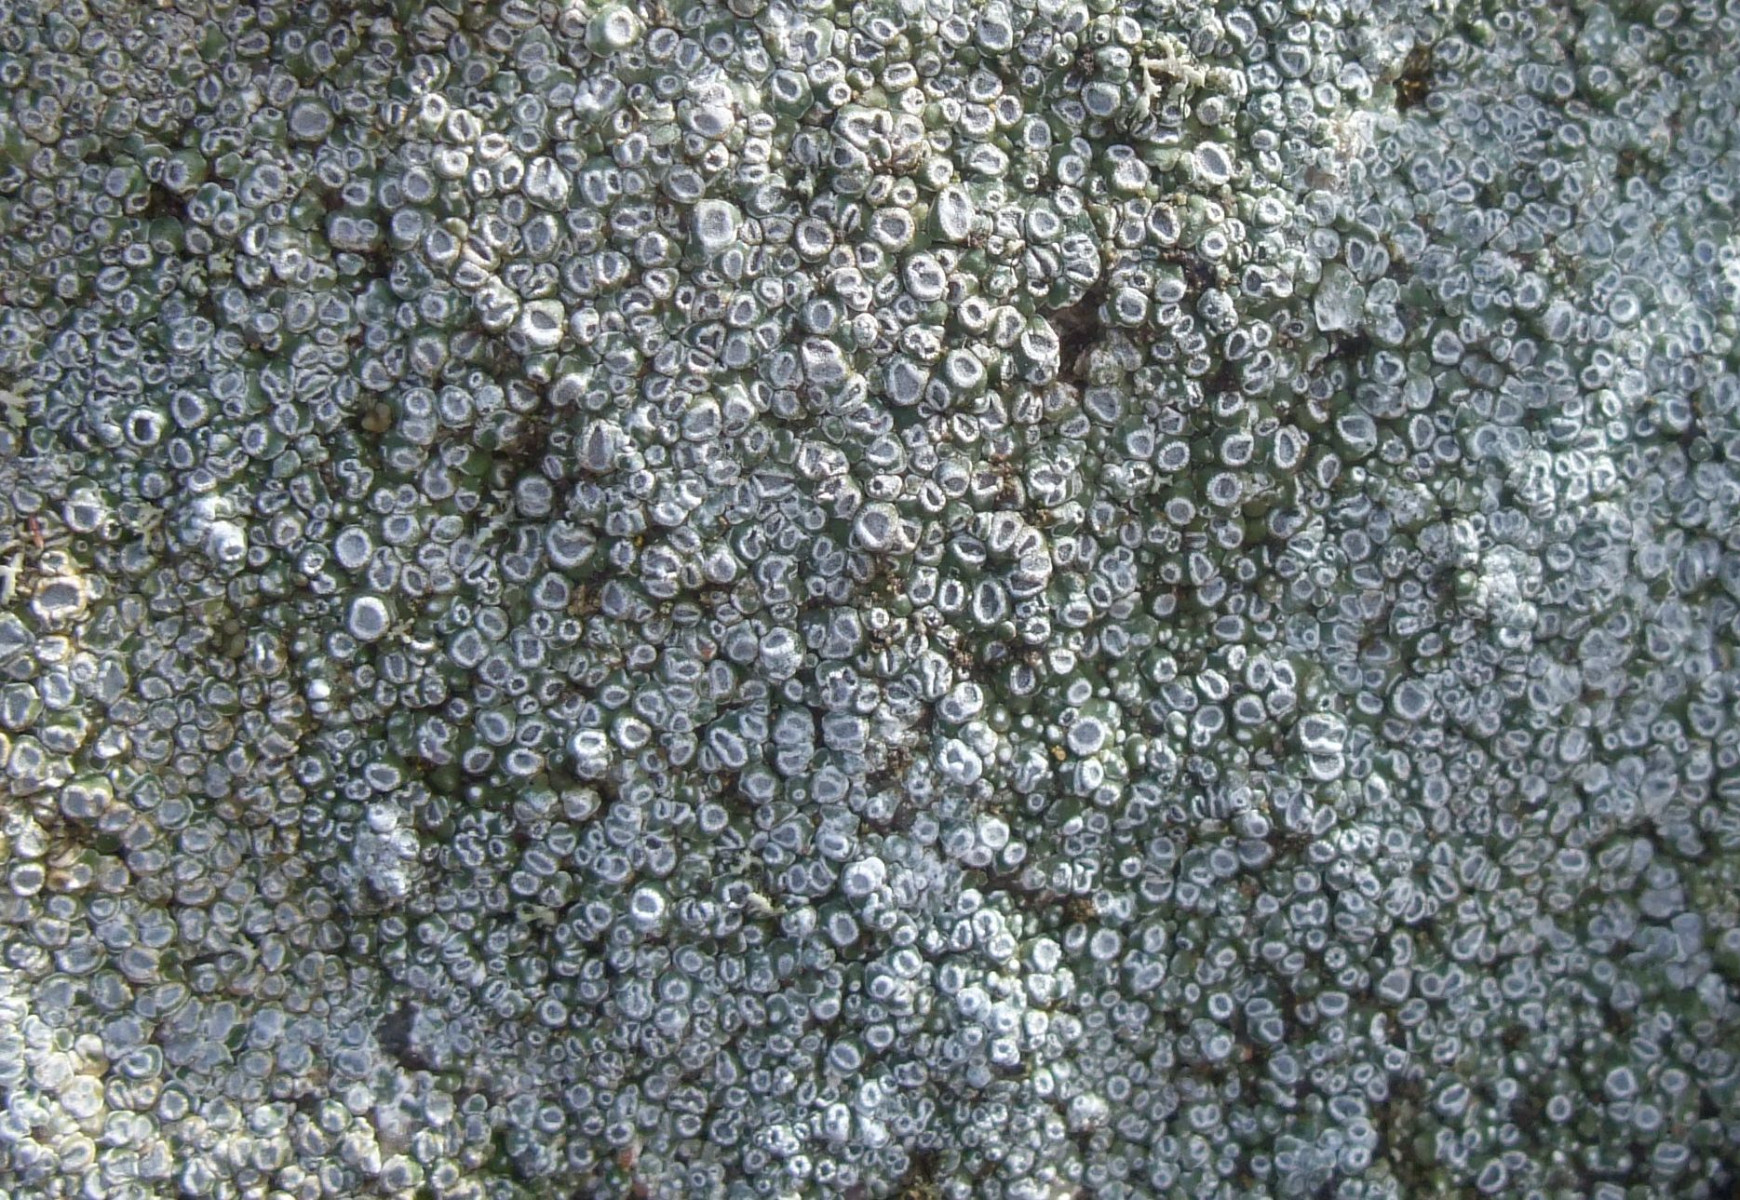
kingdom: Fungi
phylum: Ascomycota
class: Lecanoromycetes
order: Pertusariales
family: Megasporaceae
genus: Circinaria
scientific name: Circinaria contorta
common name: indviklet hulskivelav
